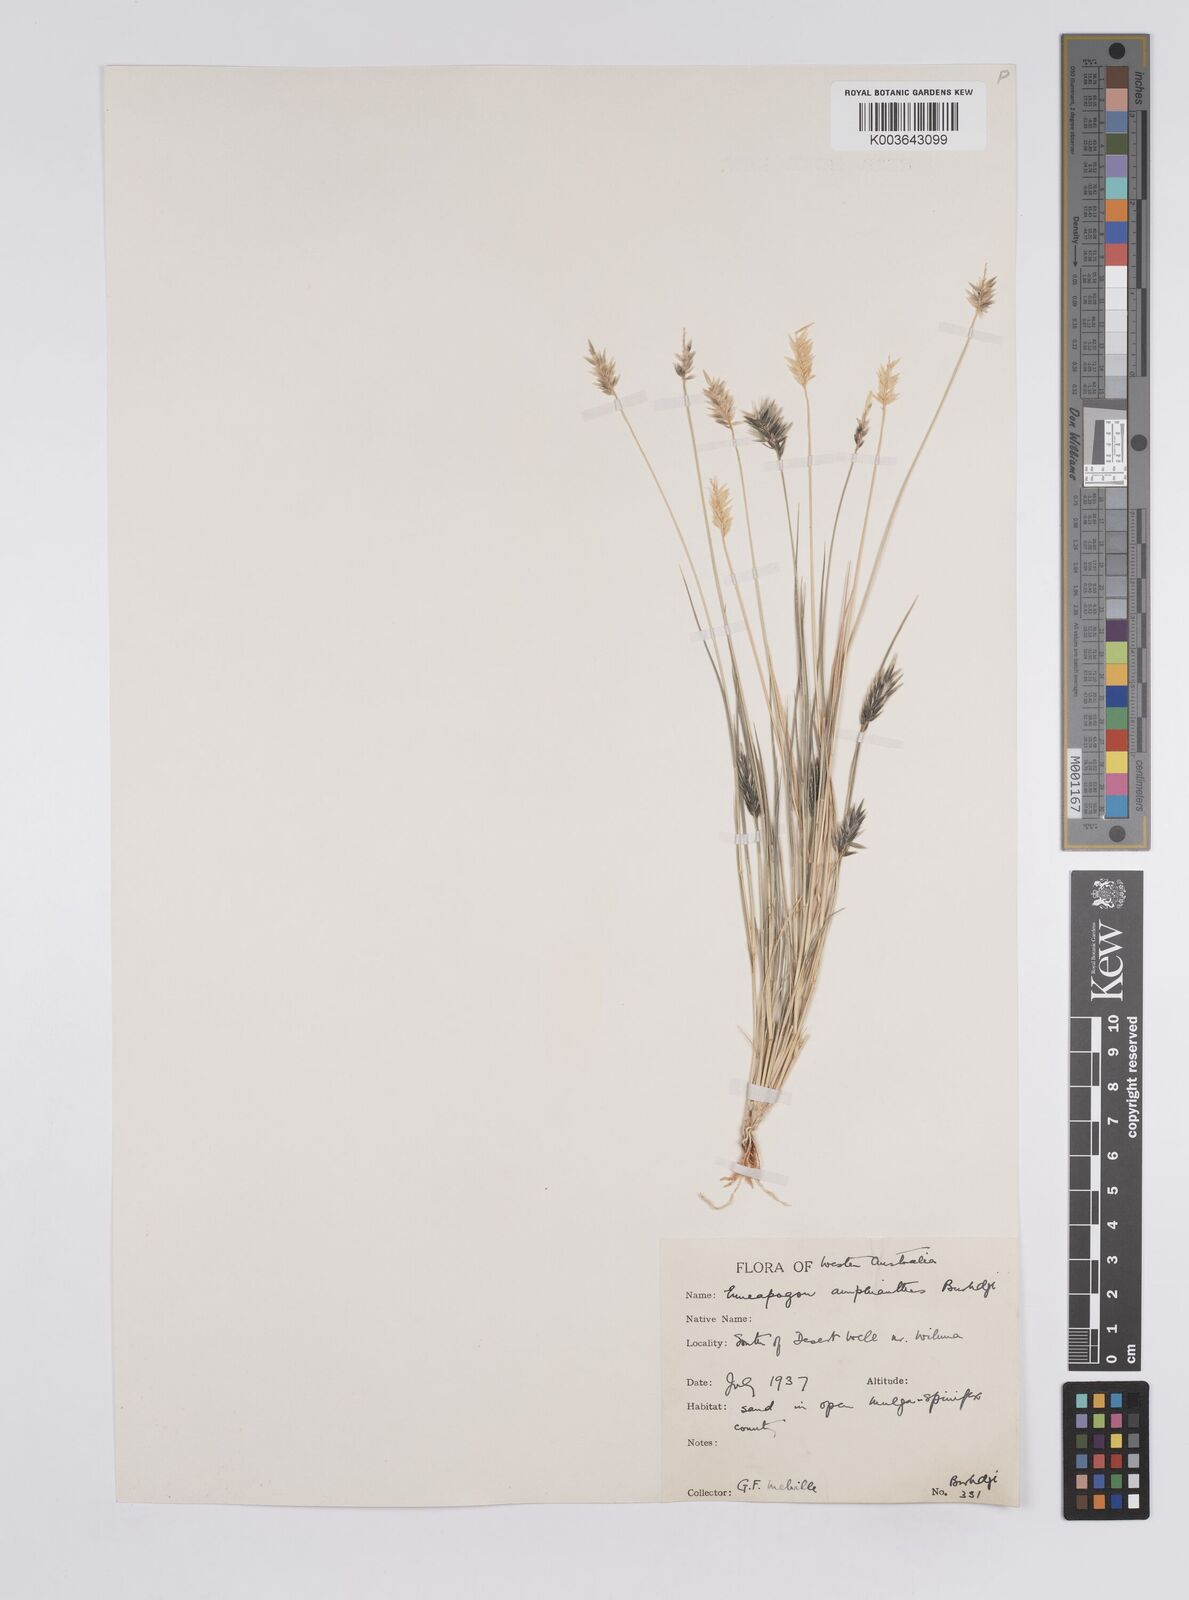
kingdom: Plantae
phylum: Tracheophyta
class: Liliopsida
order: Poales
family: Poaceae
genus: Enneapogon
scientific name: Enneapogon caerulescens
